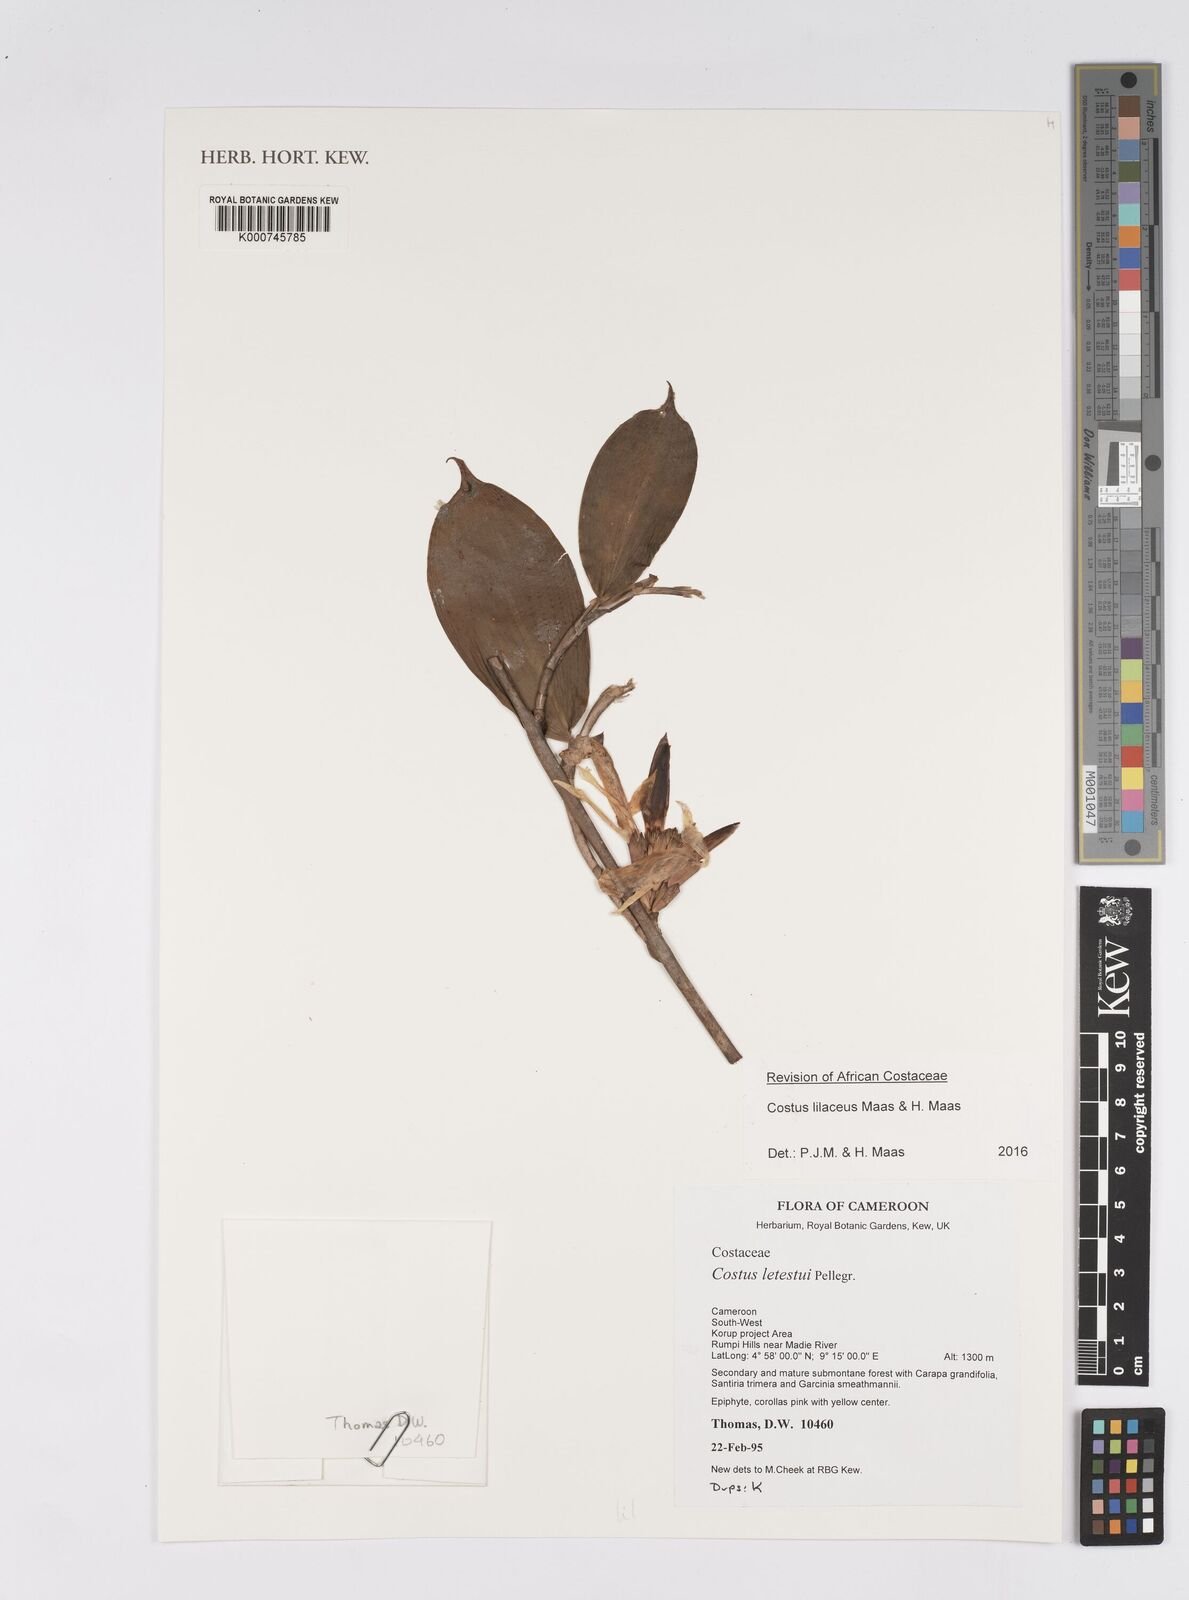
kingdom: Plantae
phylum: Tracheophyta
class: Liliopsida
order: Zingiberales
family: Costaceae
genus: Costus
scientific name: Costus lateriflorus
